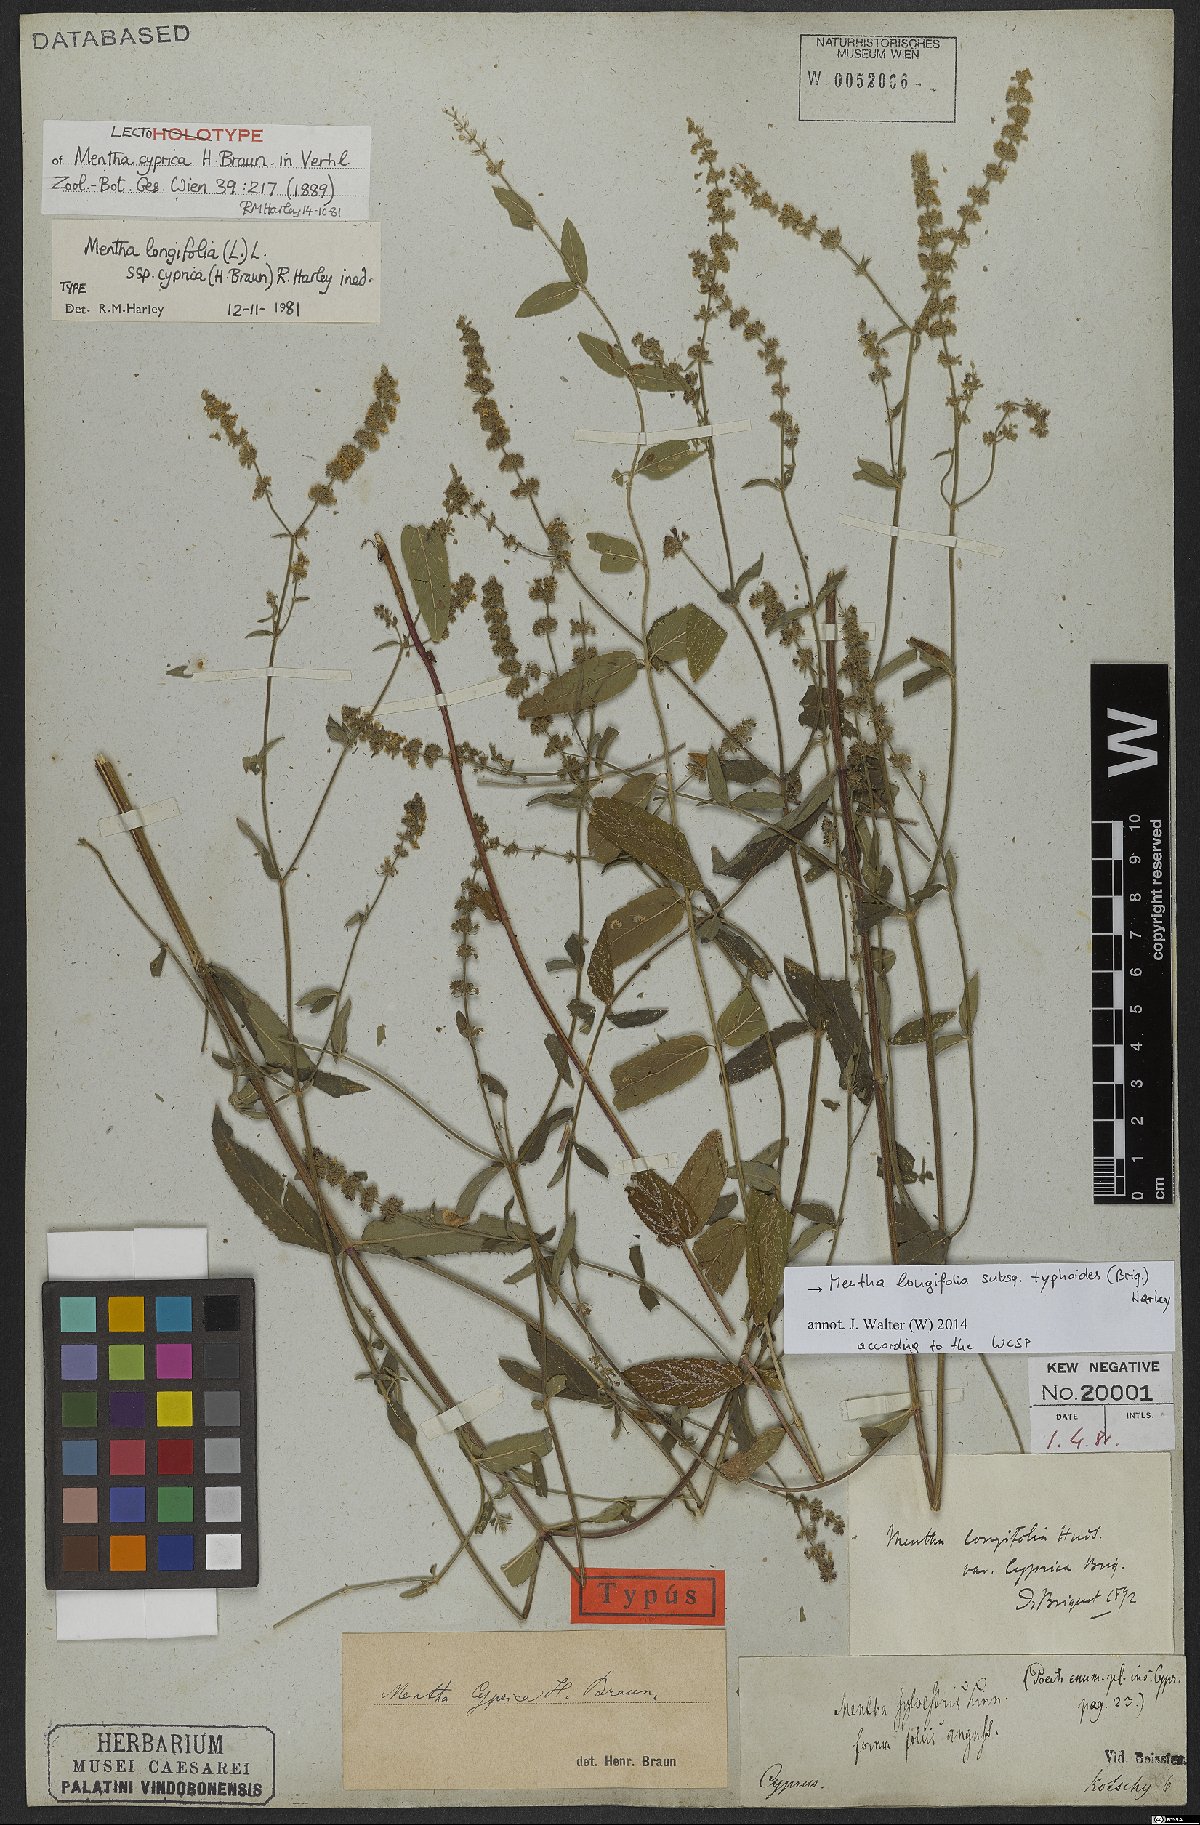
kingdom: Plantae
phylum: Tracheophyta
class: Magnoliopsida
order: Lamiales
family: Lamiaceae
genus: Mentha
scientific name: Mentha longifolia
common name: Horse mint
